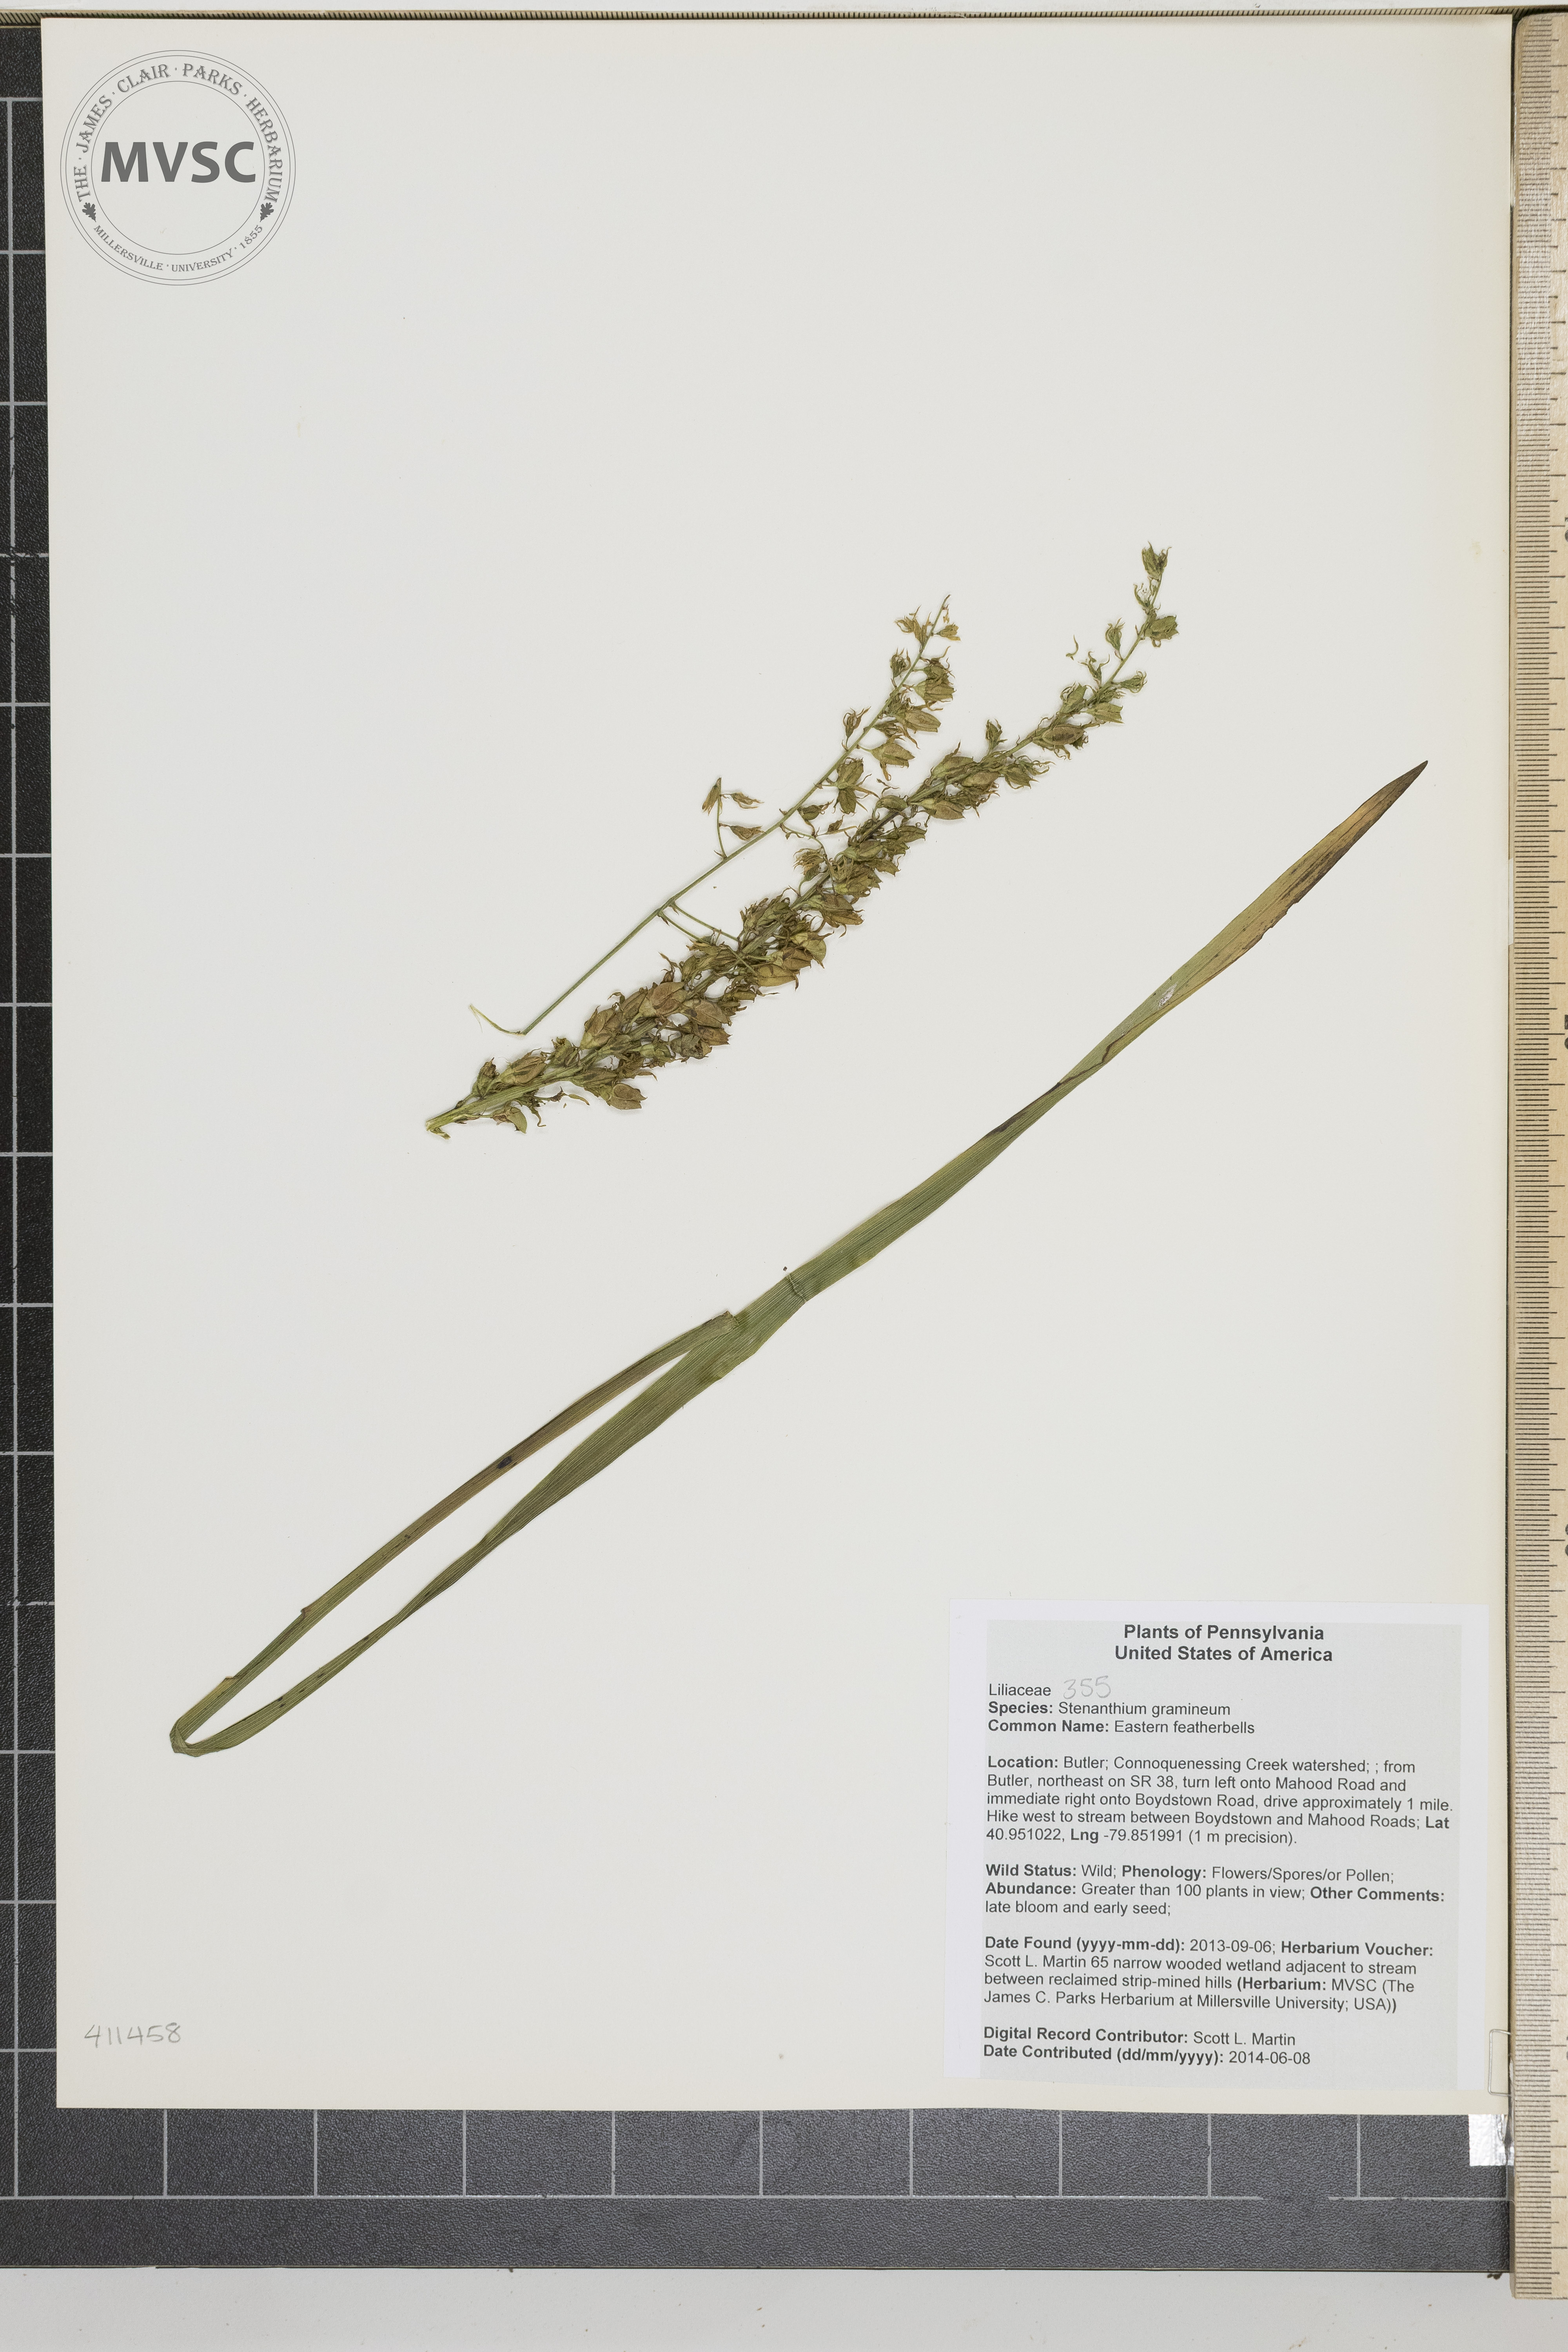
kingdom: Plantae
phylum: Tracheophyta
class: Liliopsida
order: Liliales
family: Melanthiaceae
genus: Stenanthium
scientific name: Stenanthium gramineum
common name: Eastern featherbells
